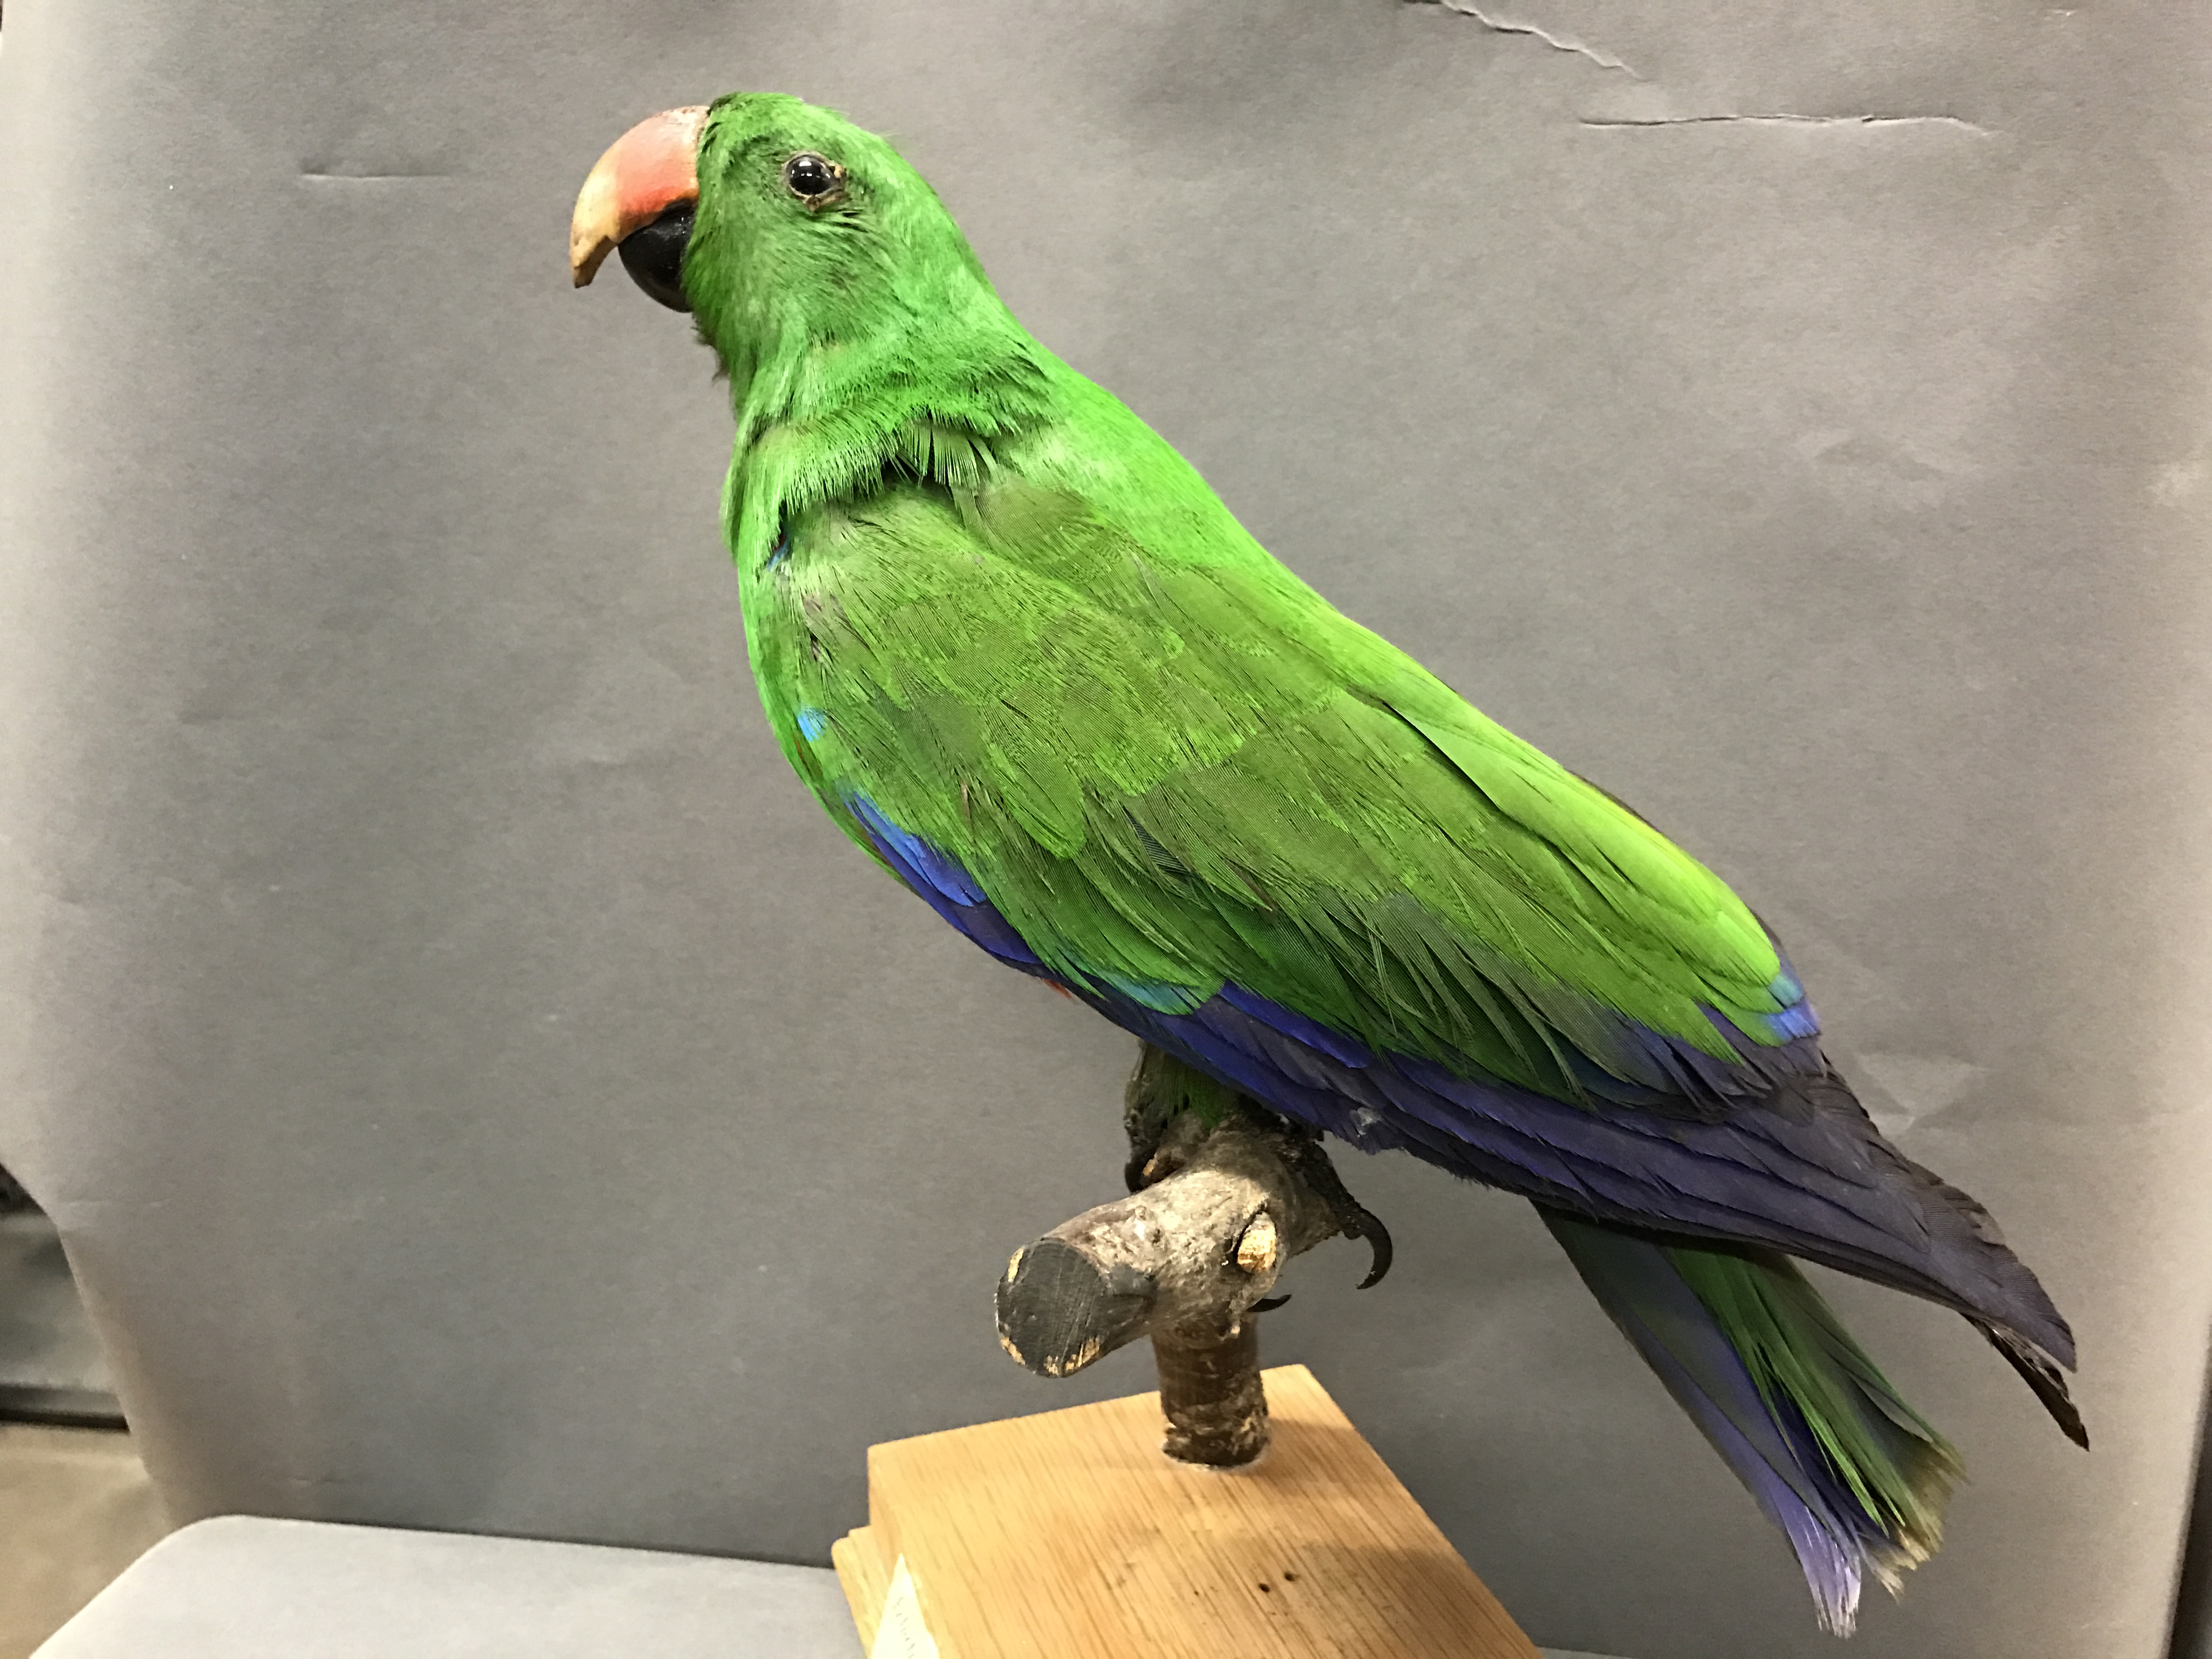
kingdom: Animalia
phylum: Chordata
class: Aves
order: Psittaciformes
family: Psittacidae
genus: Eclectus
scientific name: Eclectus roratus
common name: Eclectus parrot
